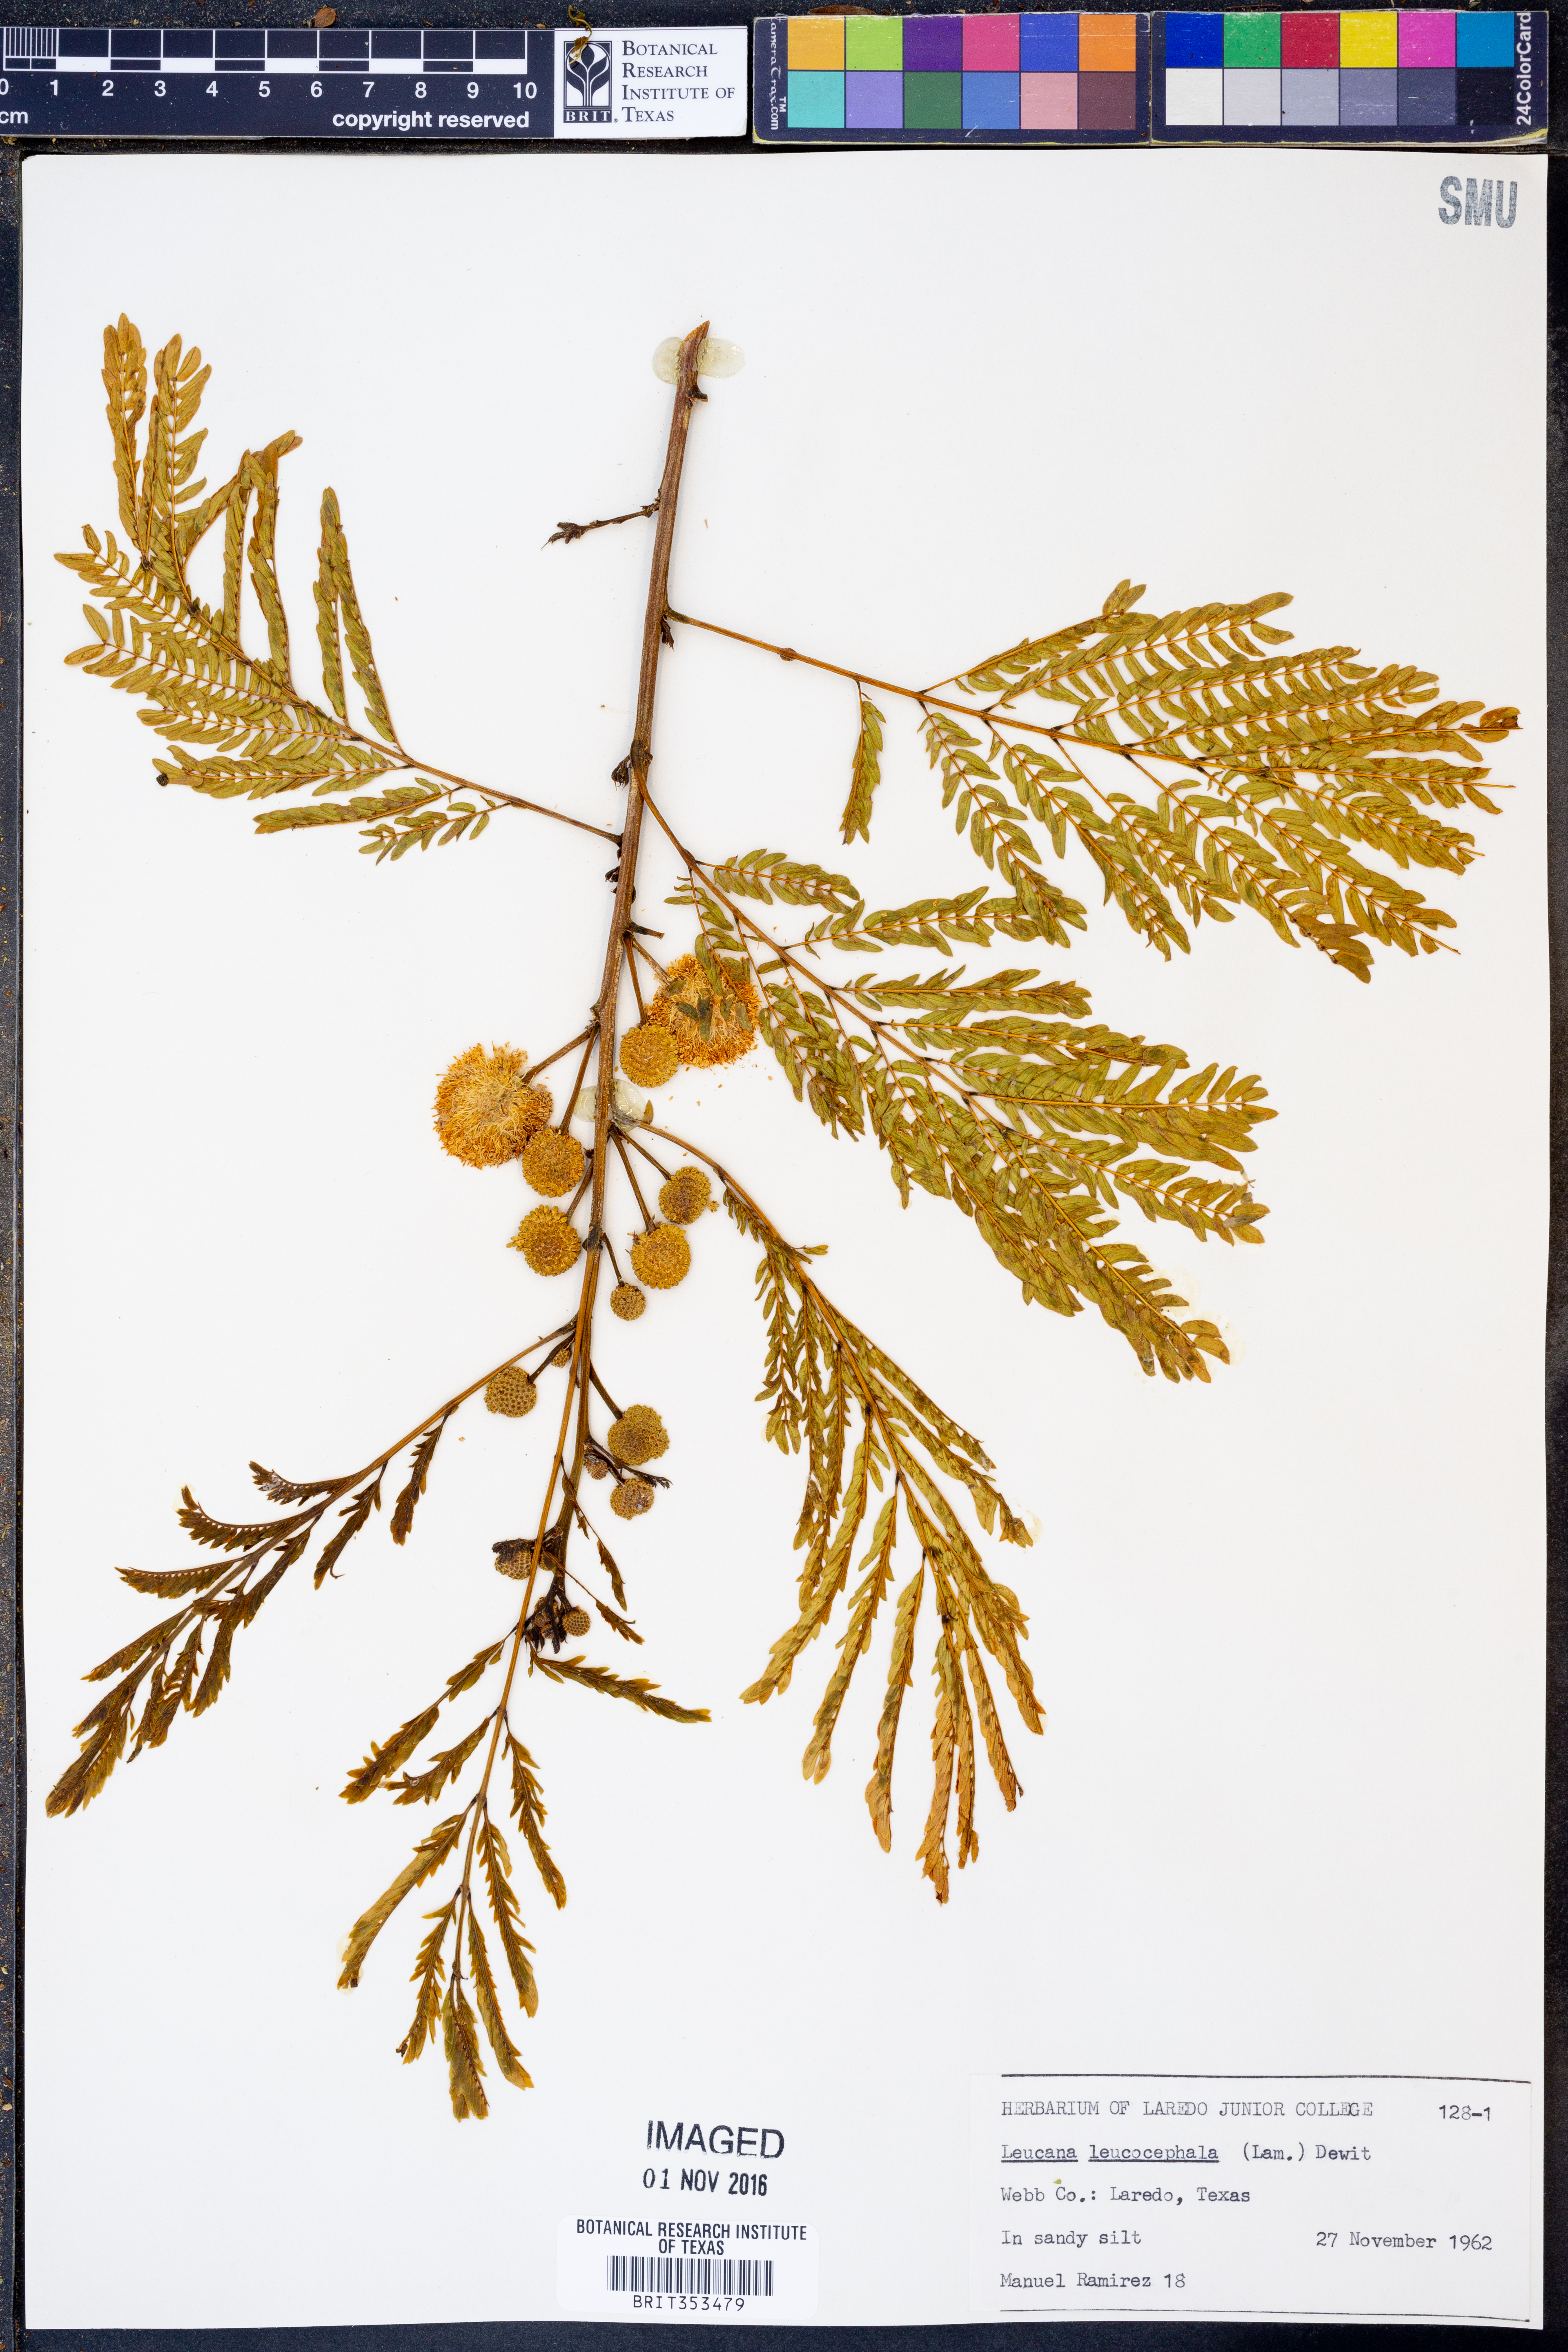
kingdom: Plantae
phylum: Tracheophyta
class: Magnoliopsida
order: Fabales
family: Fabaceae
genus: Leucaena
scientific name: Leucaena leucocephala
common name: White leadtree
